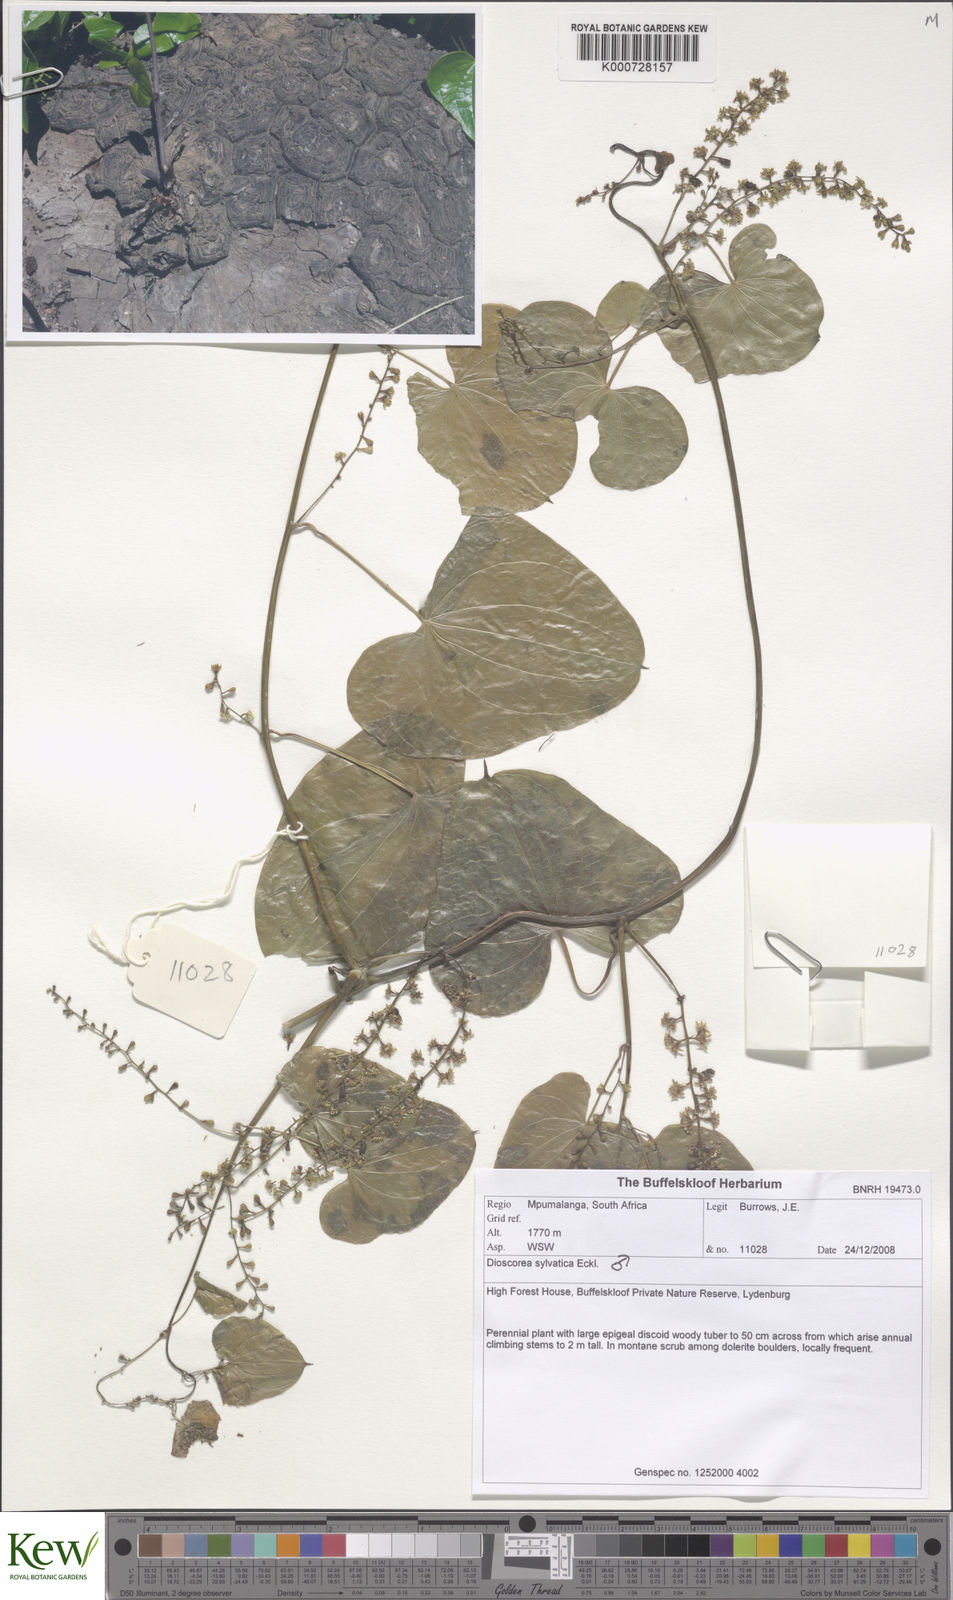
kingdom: Plantae
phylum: Tracheophyta
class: Liliopsida
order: Dioscoreales
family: Dioscoreaceae
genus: Dioscorea
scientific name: Dioscorea sylvatica
